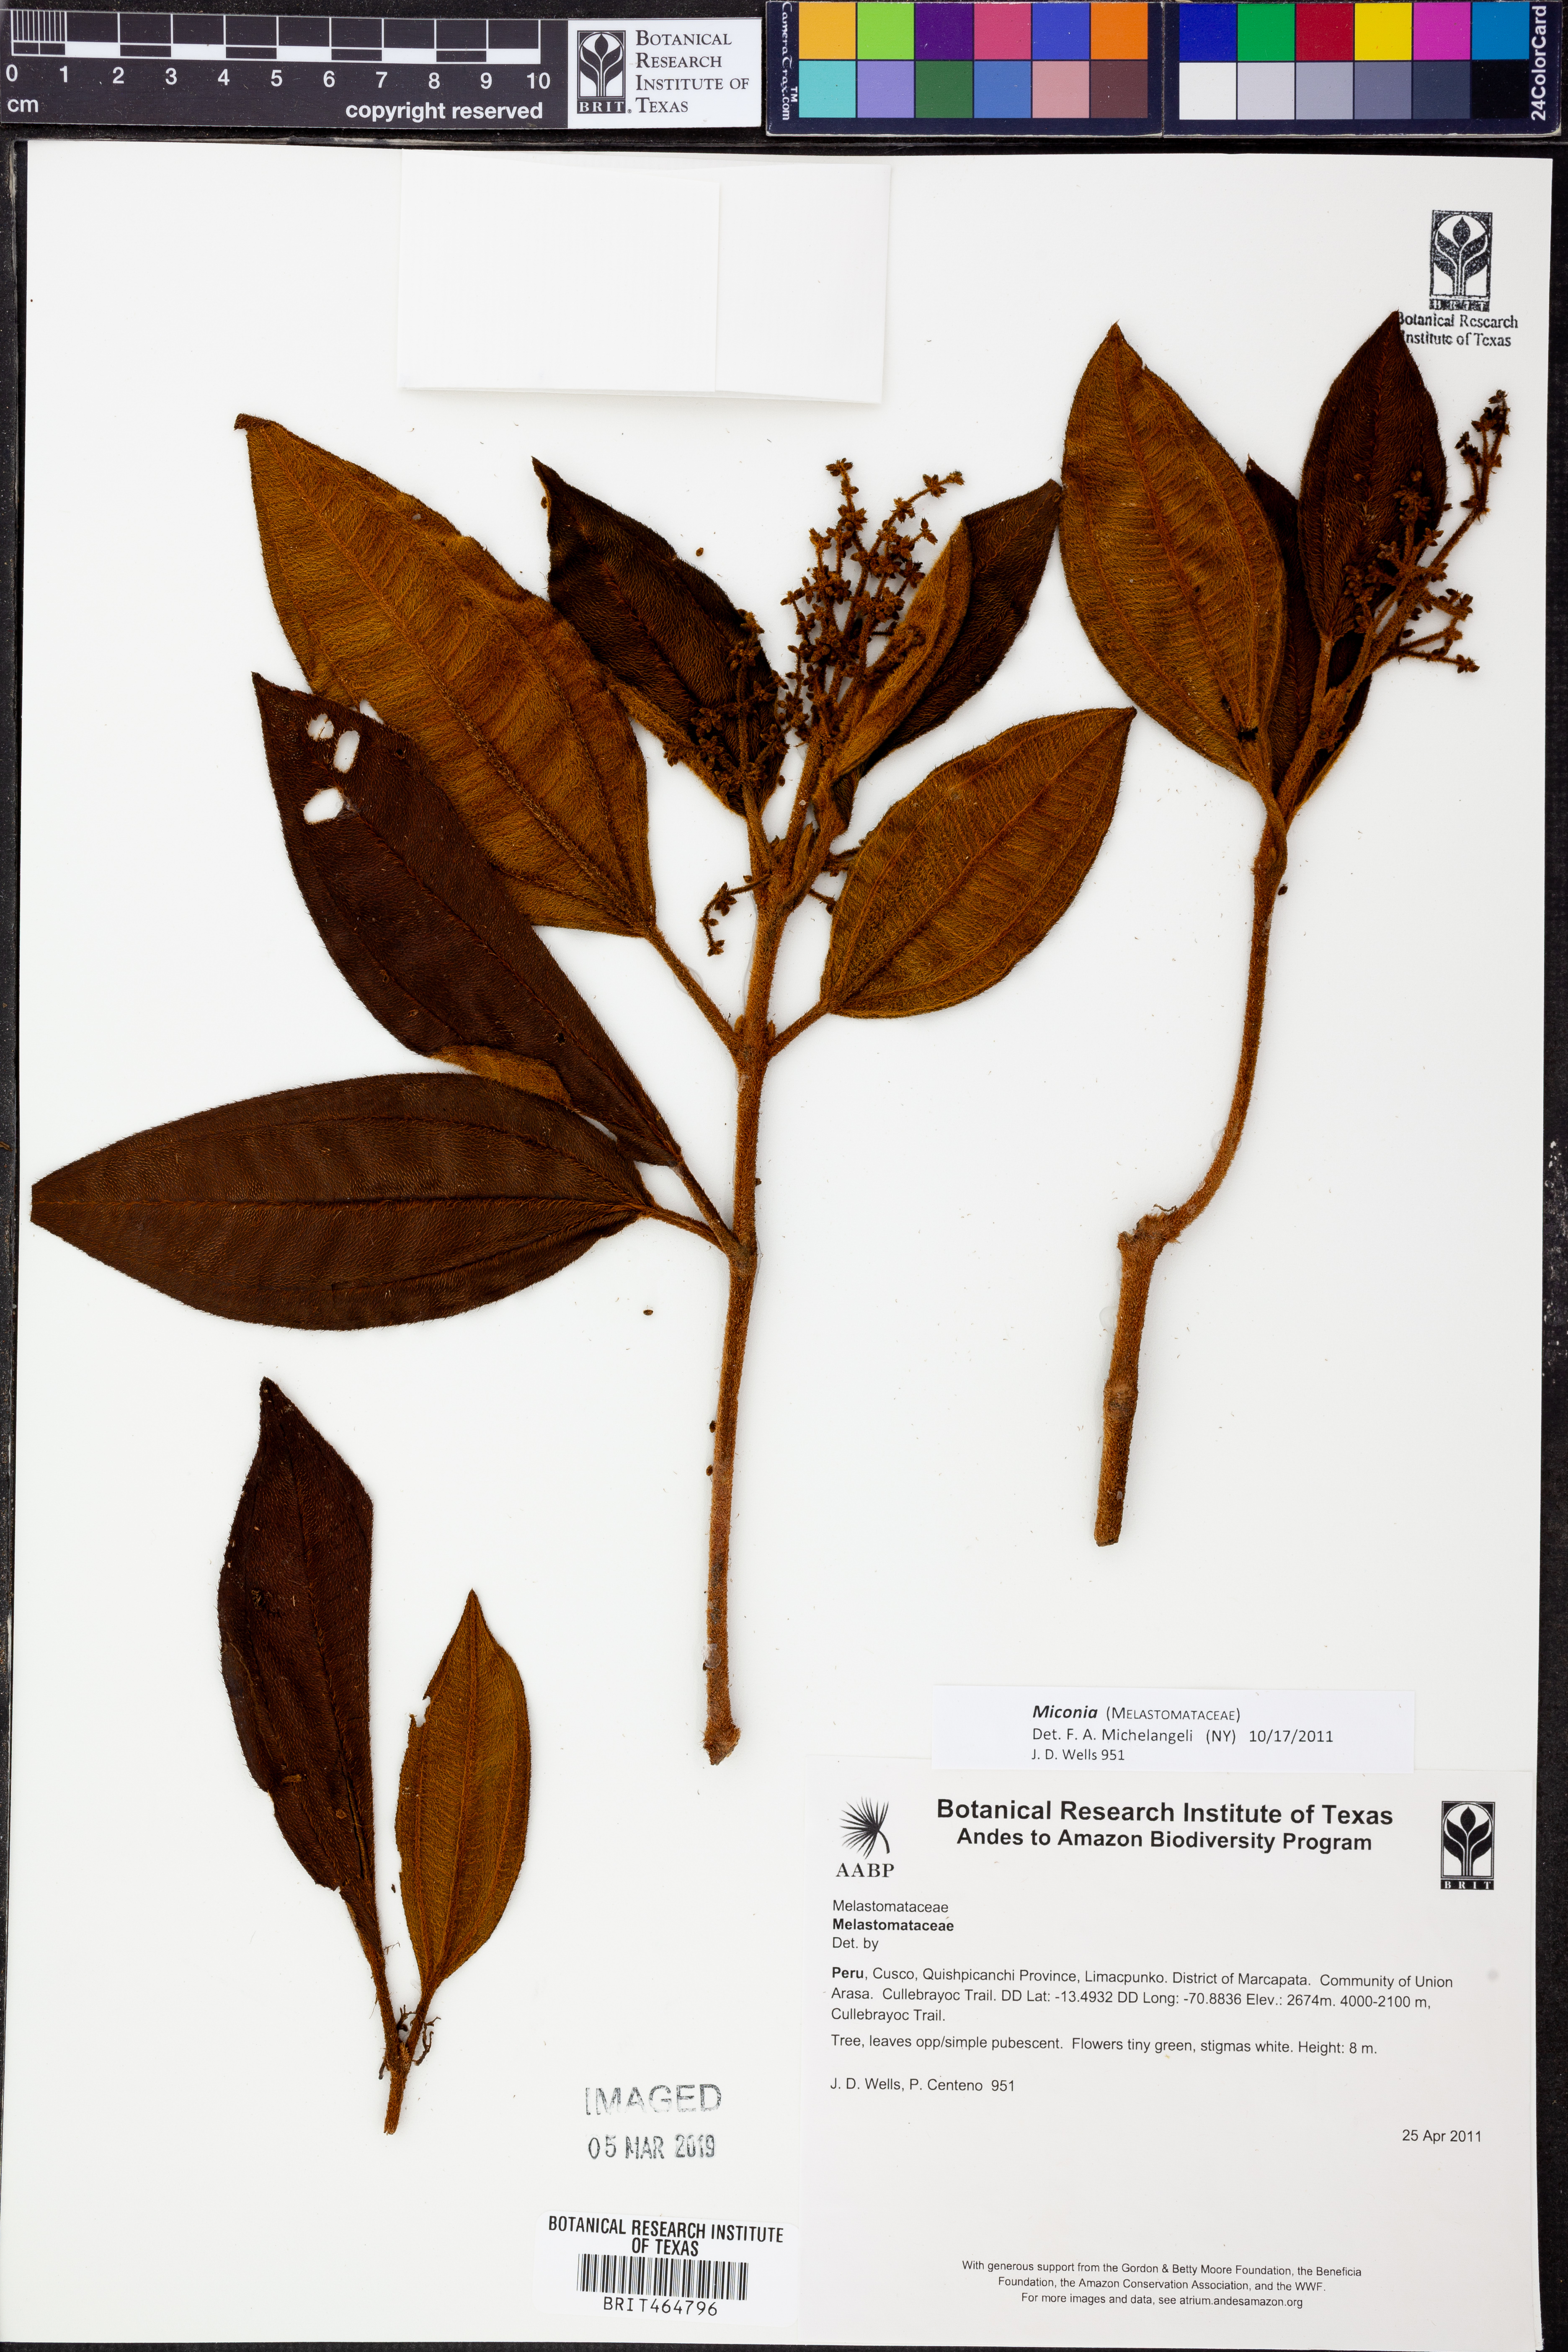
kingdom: Plantae
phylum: Tracheophyta
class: Magnoliopsida
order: Myrtales
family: Melastomataceae
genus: Miconia
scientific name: Miconia
